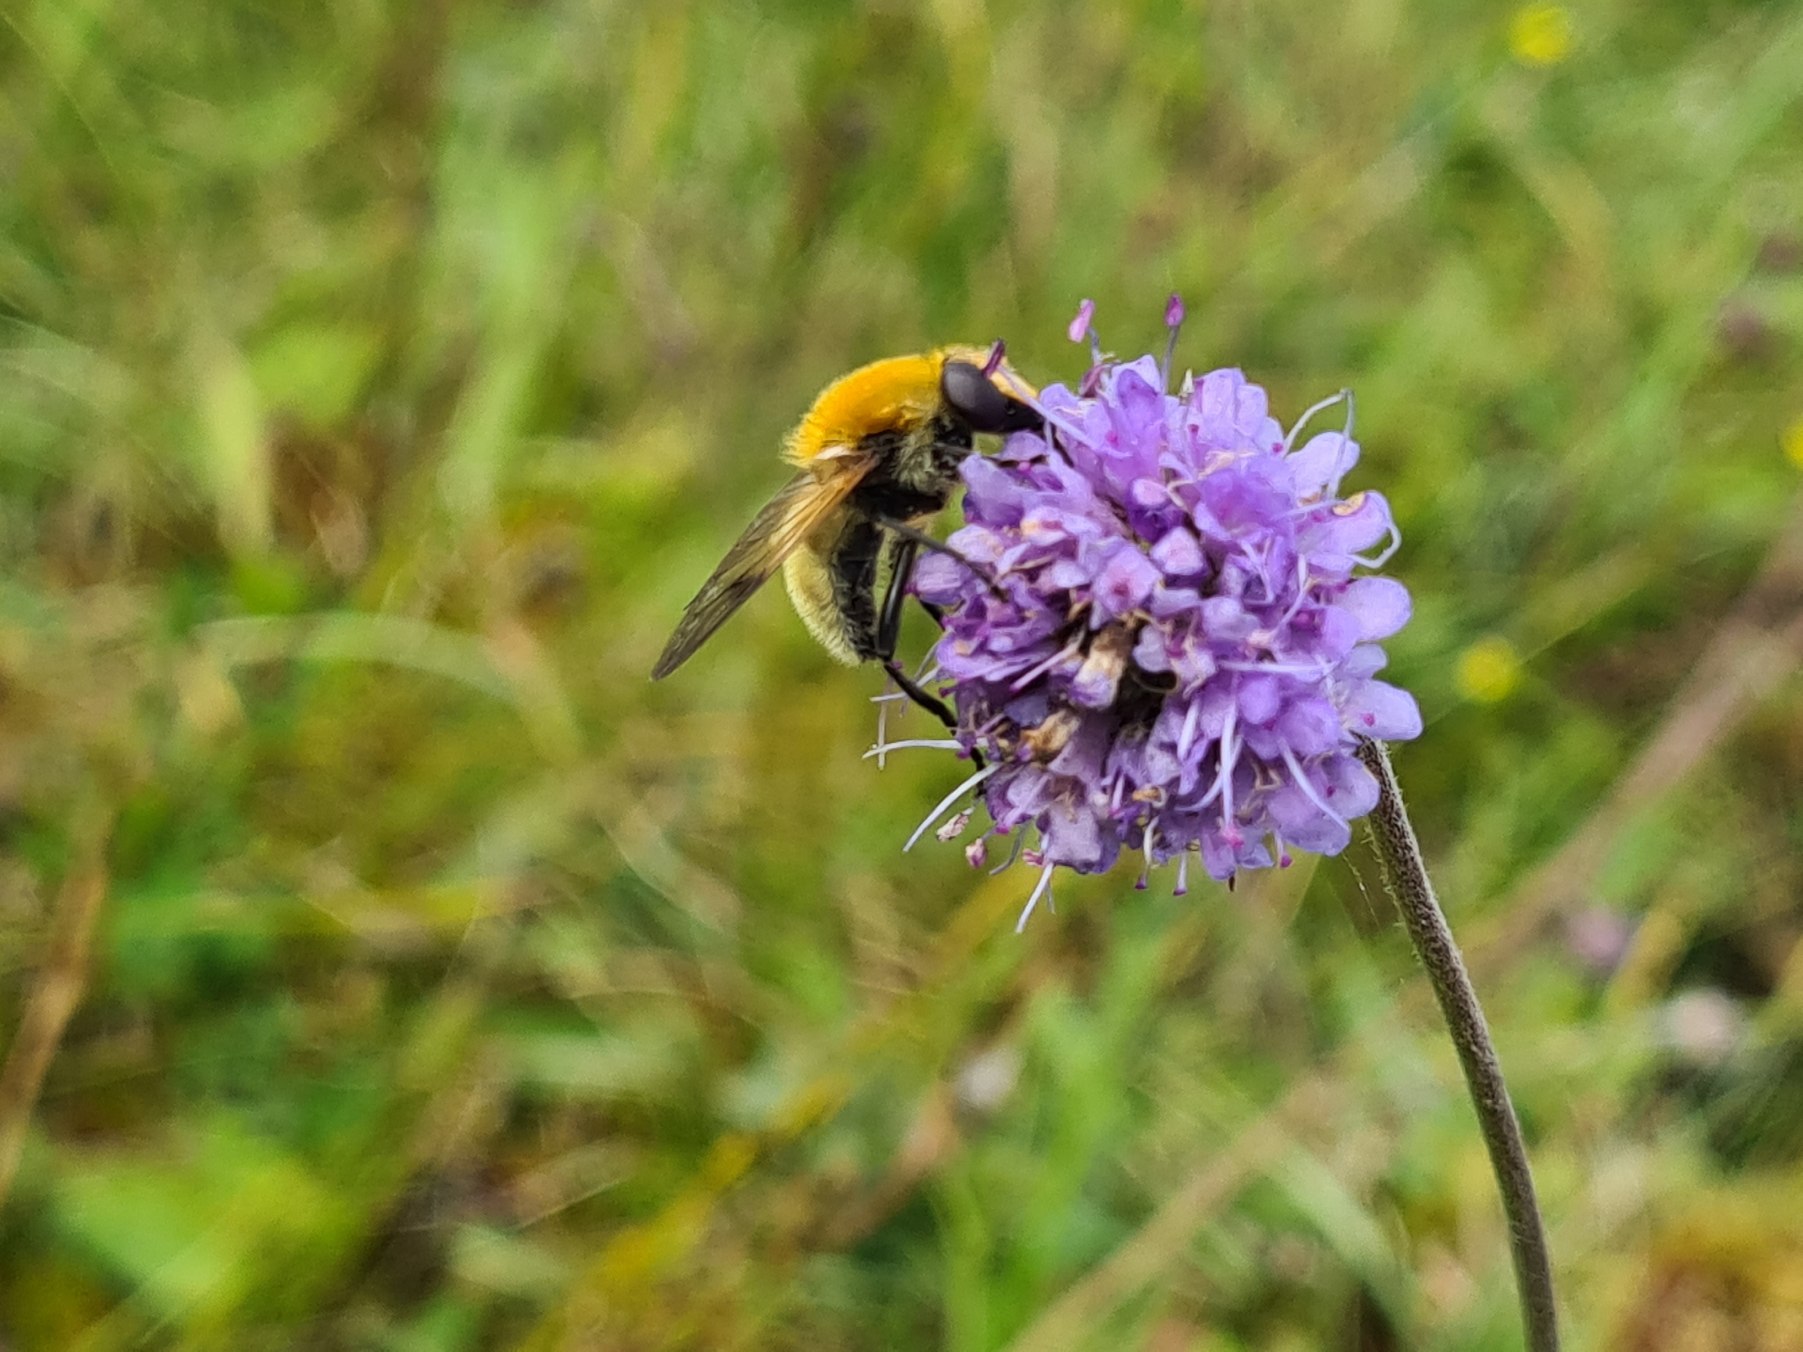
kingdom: Animalia
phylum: Arthropoda
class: Insecta
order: Diptera
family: Syrphidae
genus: Sericomyia
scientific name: Sericomyia superbiens
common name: Brun bjørnesvirreflue
